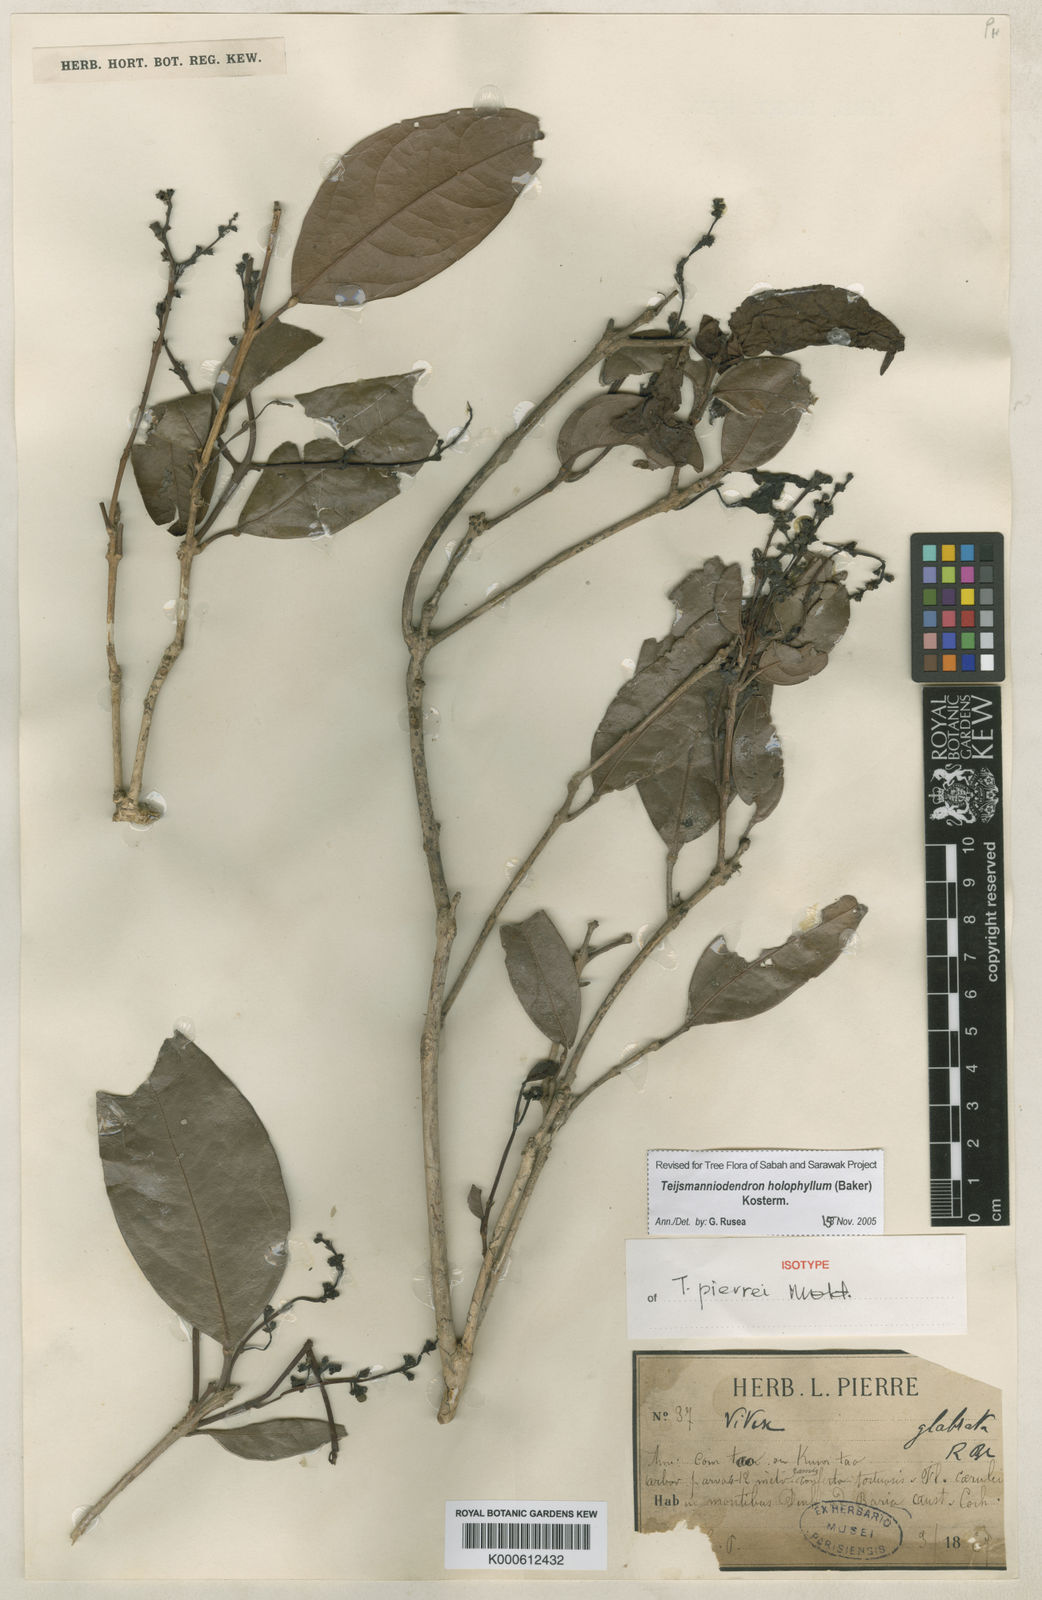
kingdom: Plantae
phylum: Tracheophyta
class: Magnoliopsida
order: Lamiales
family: Lamiaceae
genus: Teijsmanniodendron
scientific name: Teijsmanniodendron
